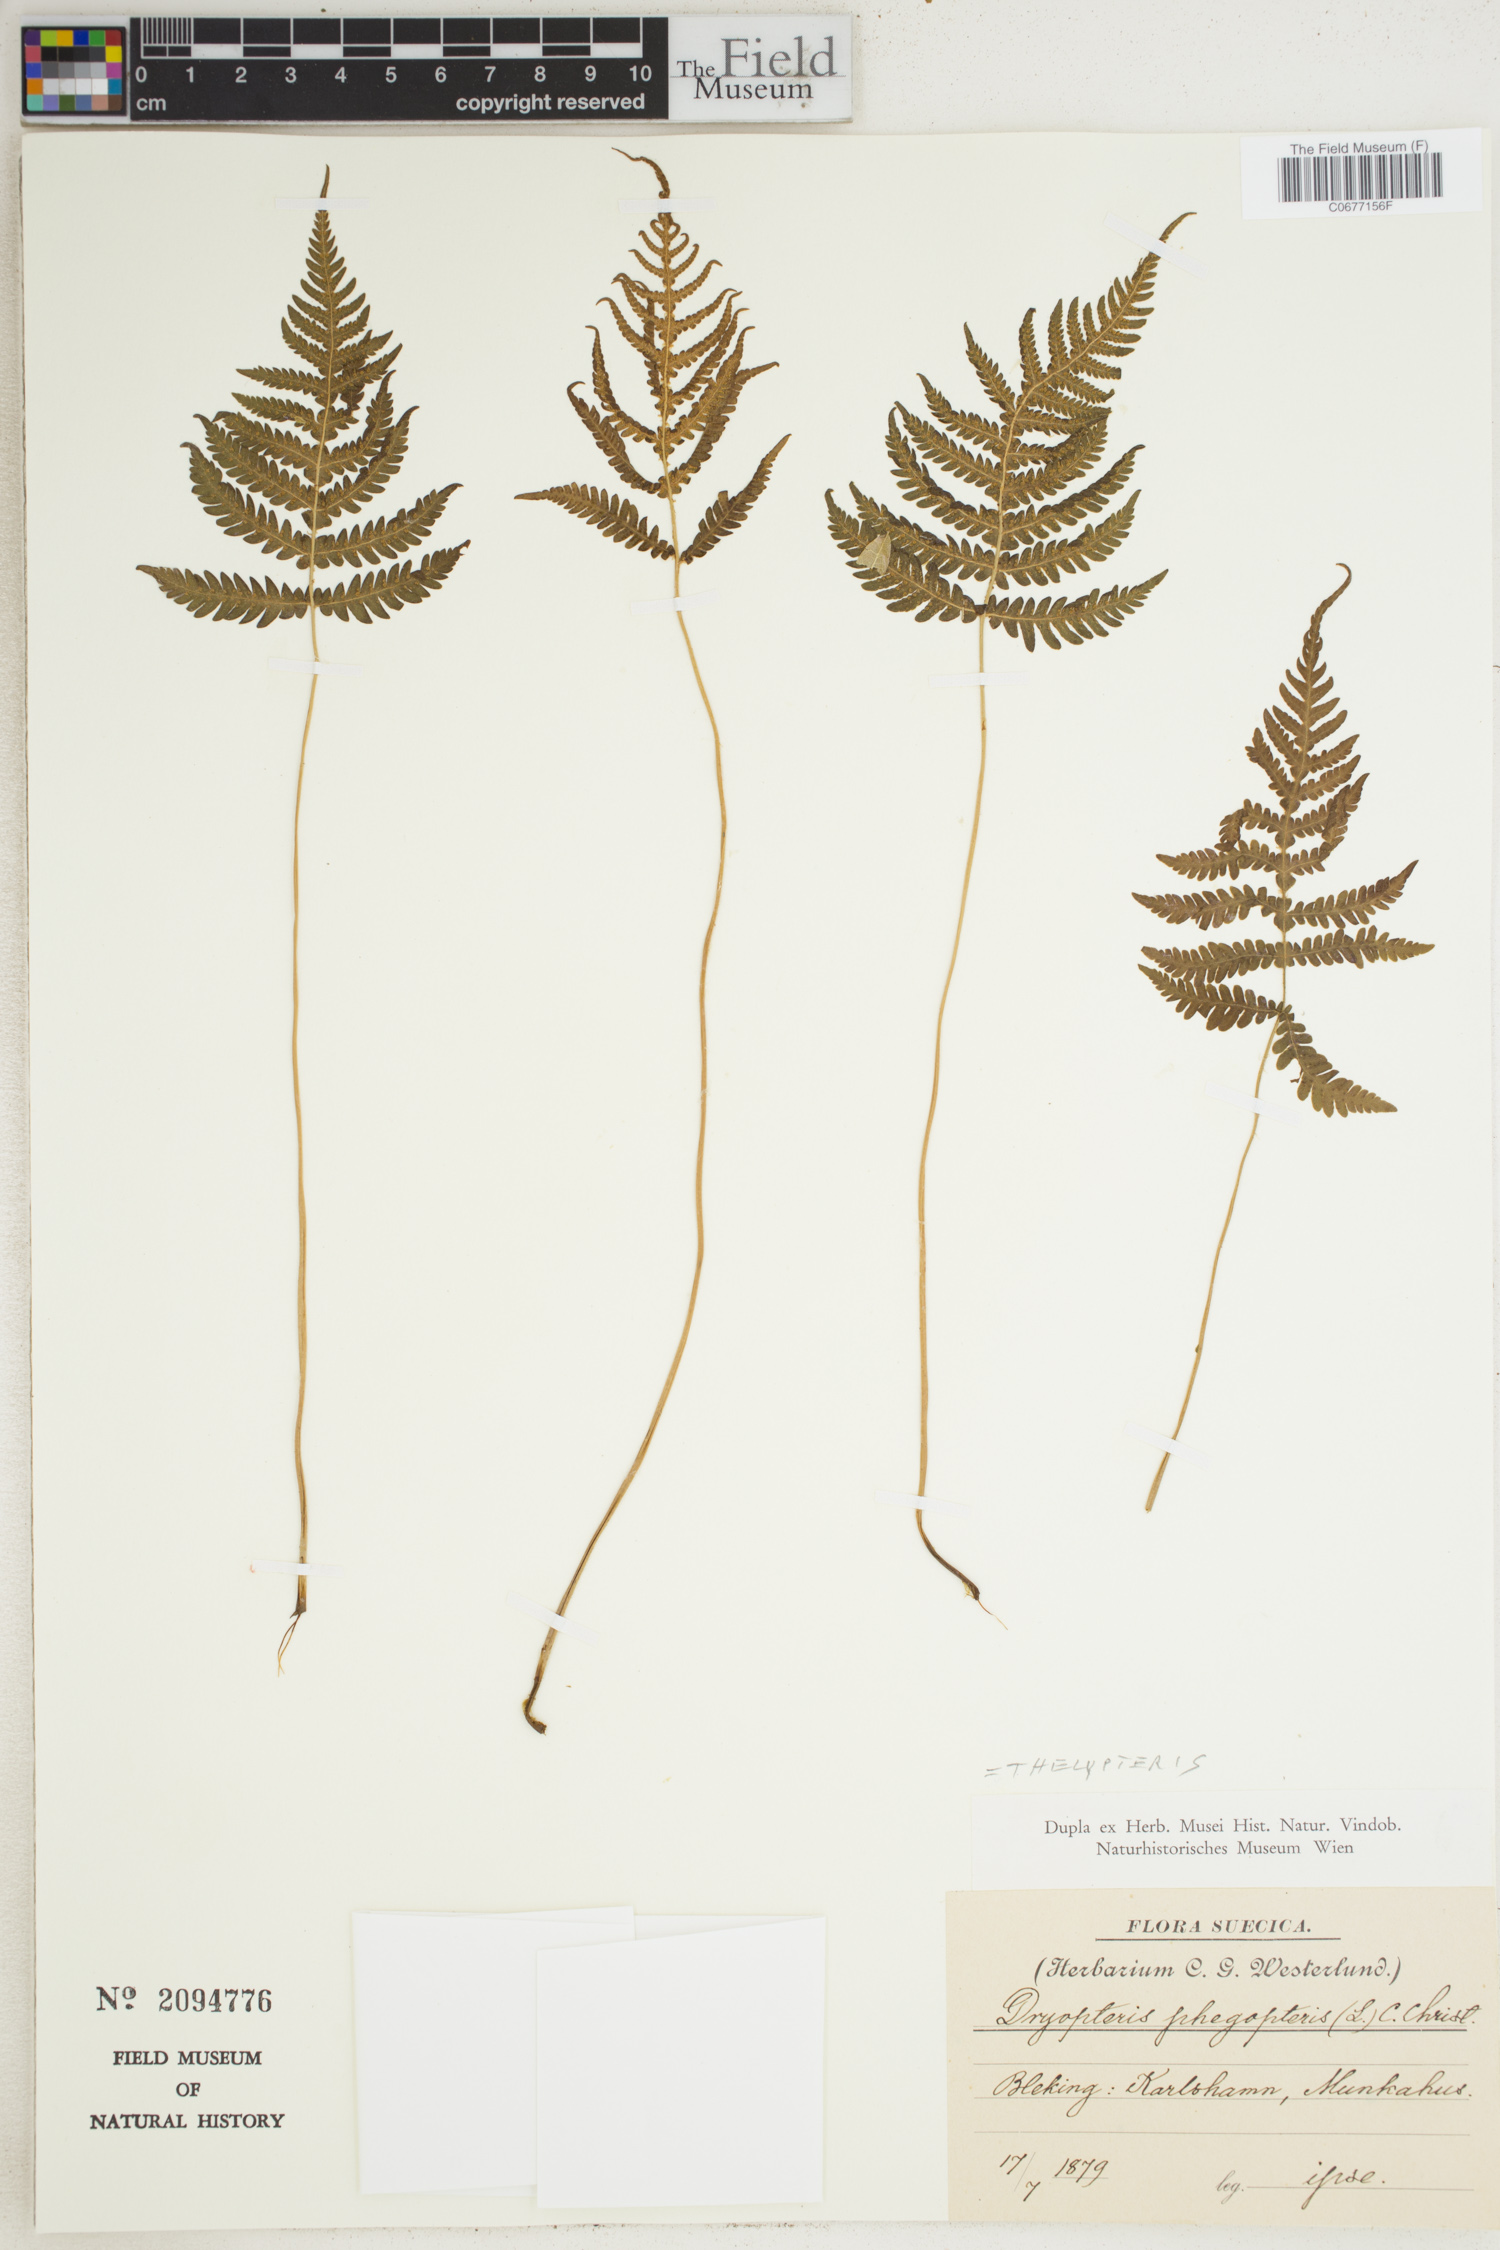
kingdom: Plantae
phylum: Tracheophyta
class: Polypodiopsida
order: Polypodiales
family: Thelypteridaceae
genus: Phegopteris
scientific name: Phegopteris connectilis
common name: Beech fern
